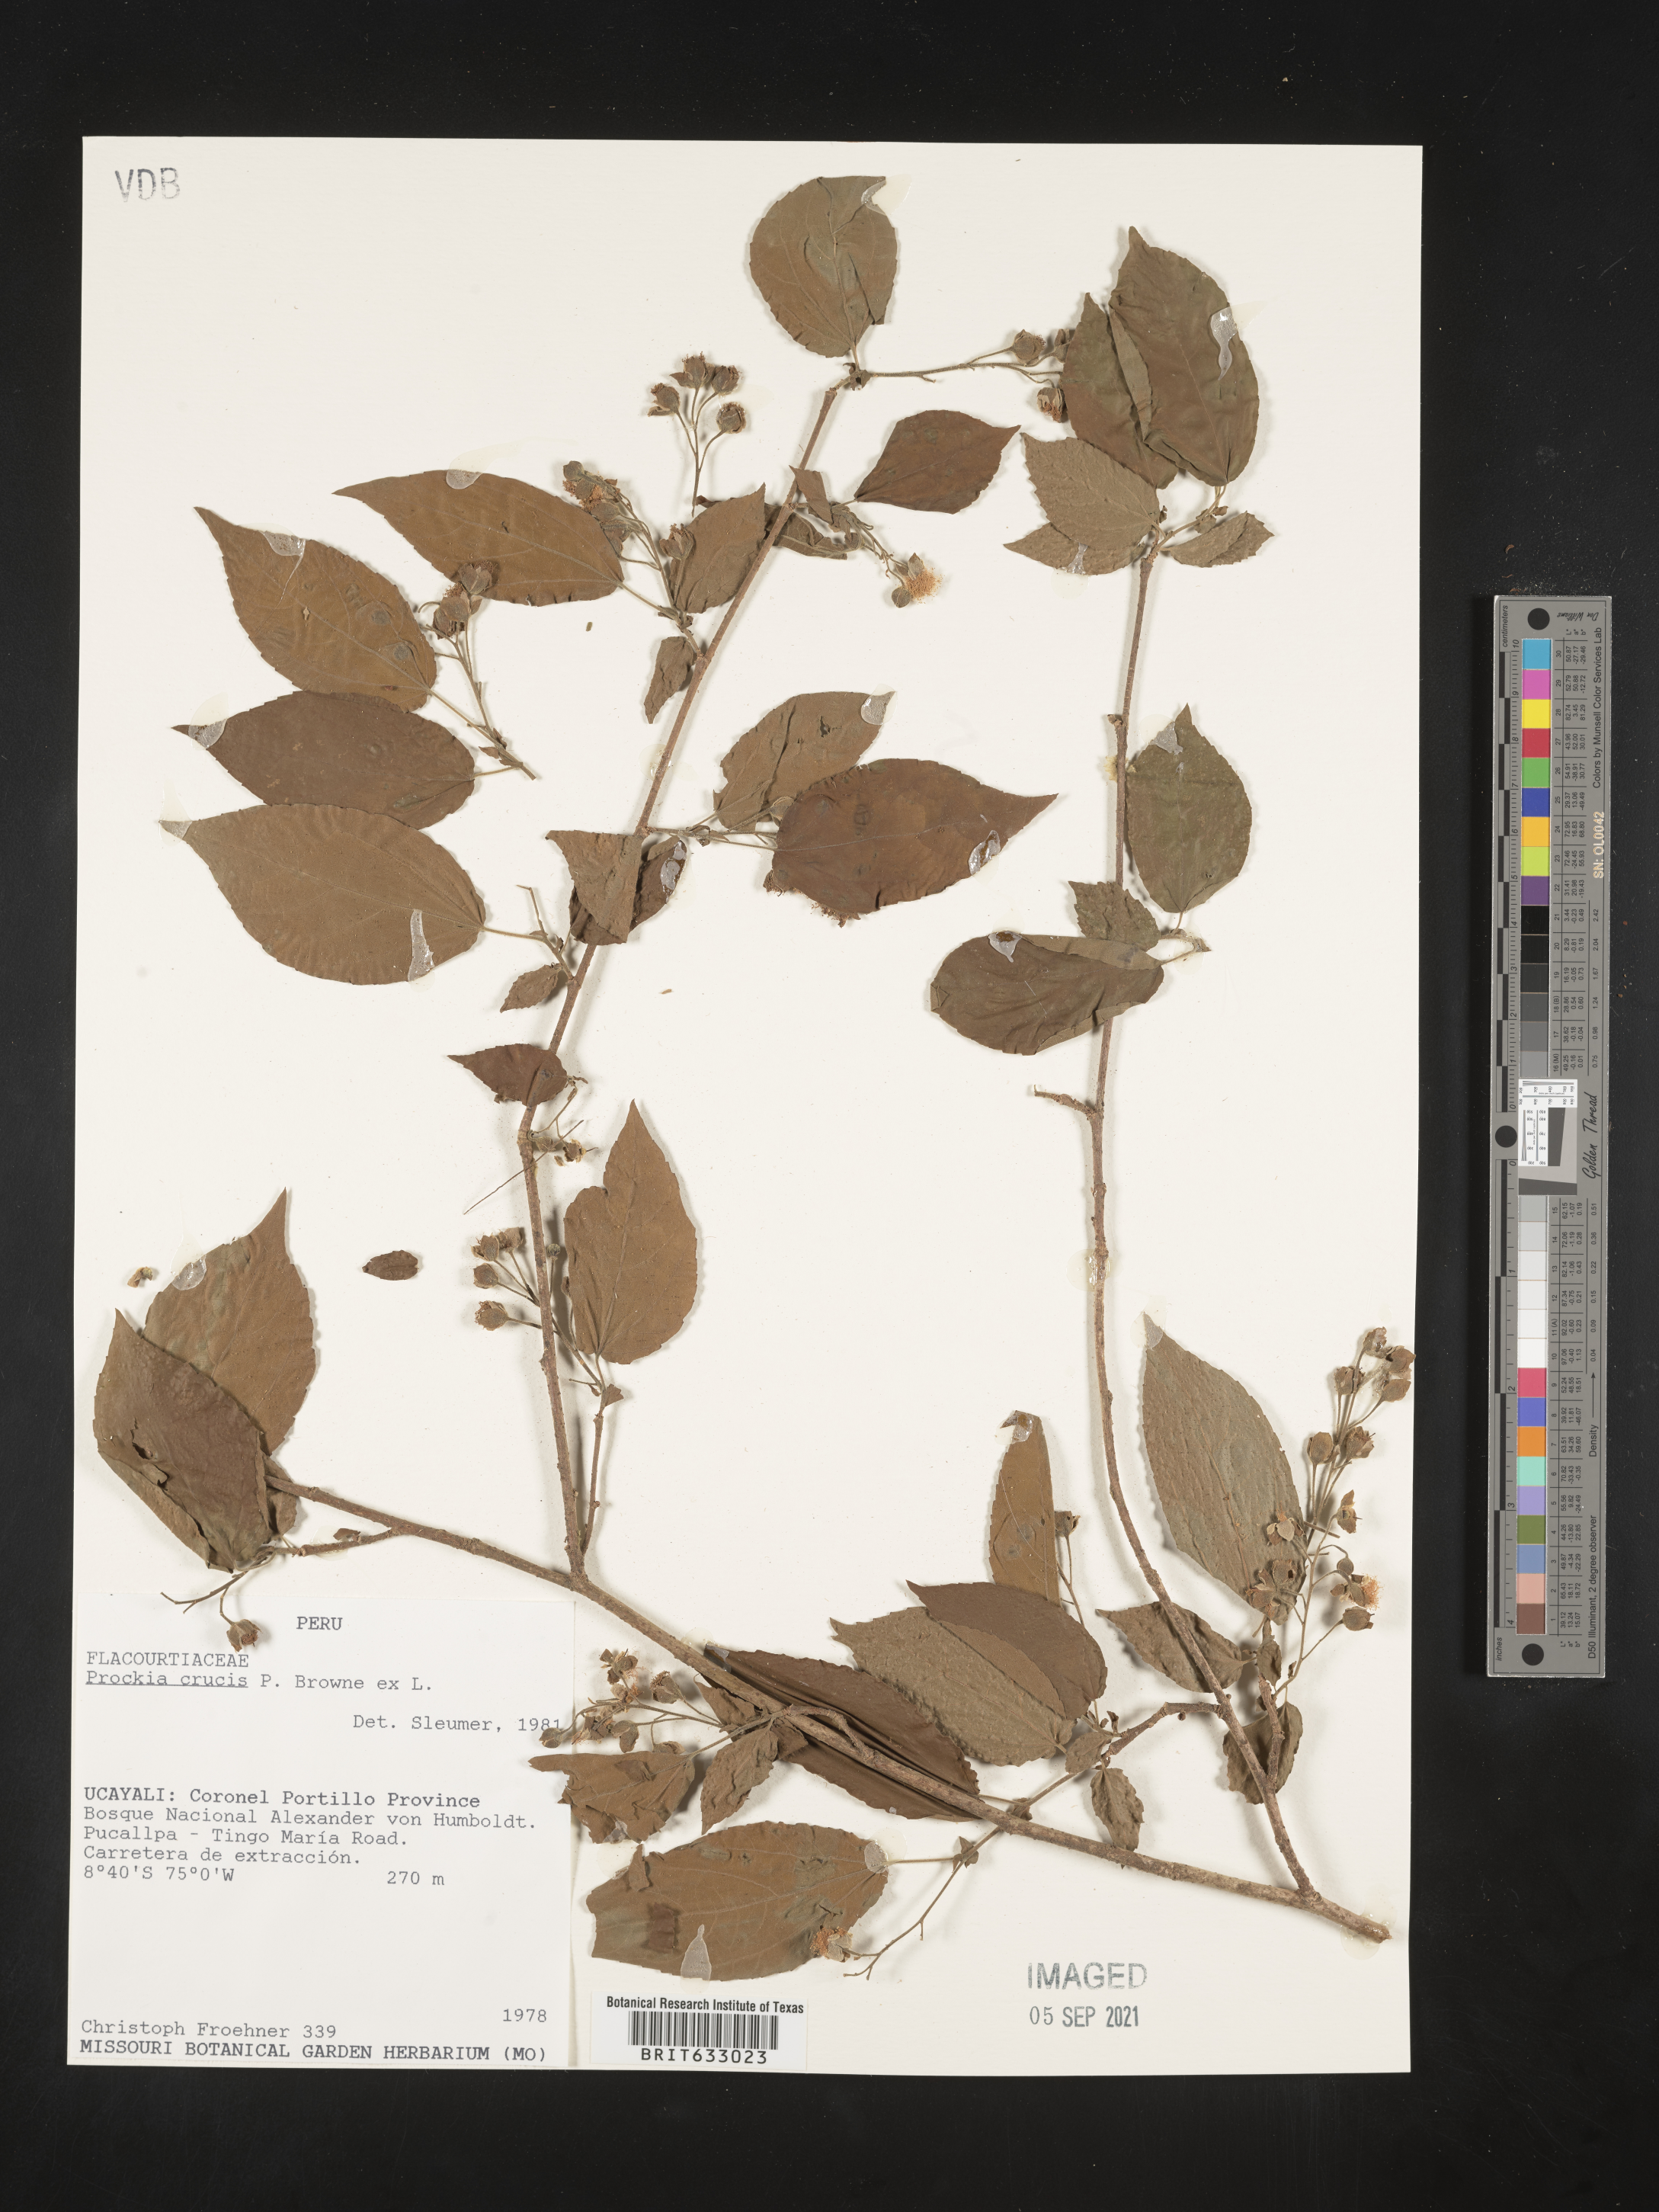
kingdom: Plantae
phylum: Tracheophyta
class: Magnoliopsida
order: Malpighiales
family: Salicaceae
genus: Prockia
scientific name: Prockia
